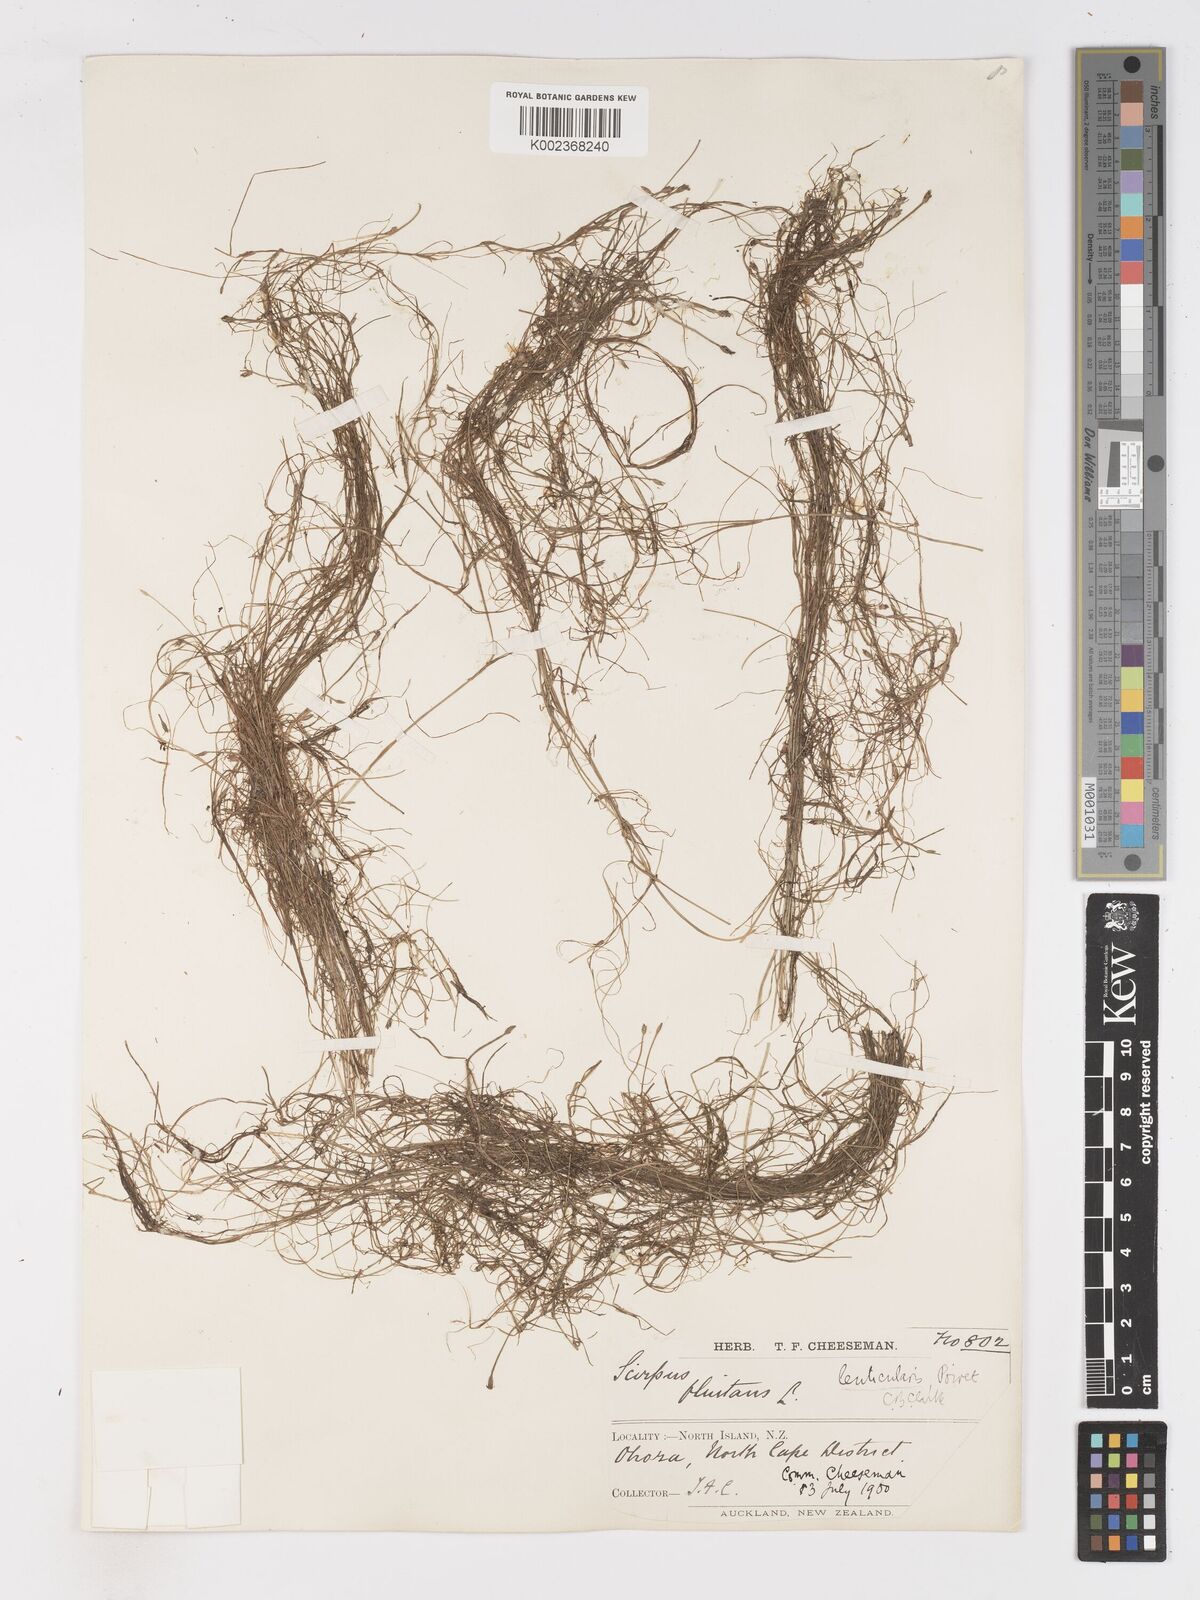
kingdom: Plantae
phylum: Tracheophyta
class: Liliopsida
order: Poales
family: Cyperaceae
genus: Isolepis
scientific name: Isolepis fluitans
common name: Floating club-rush
